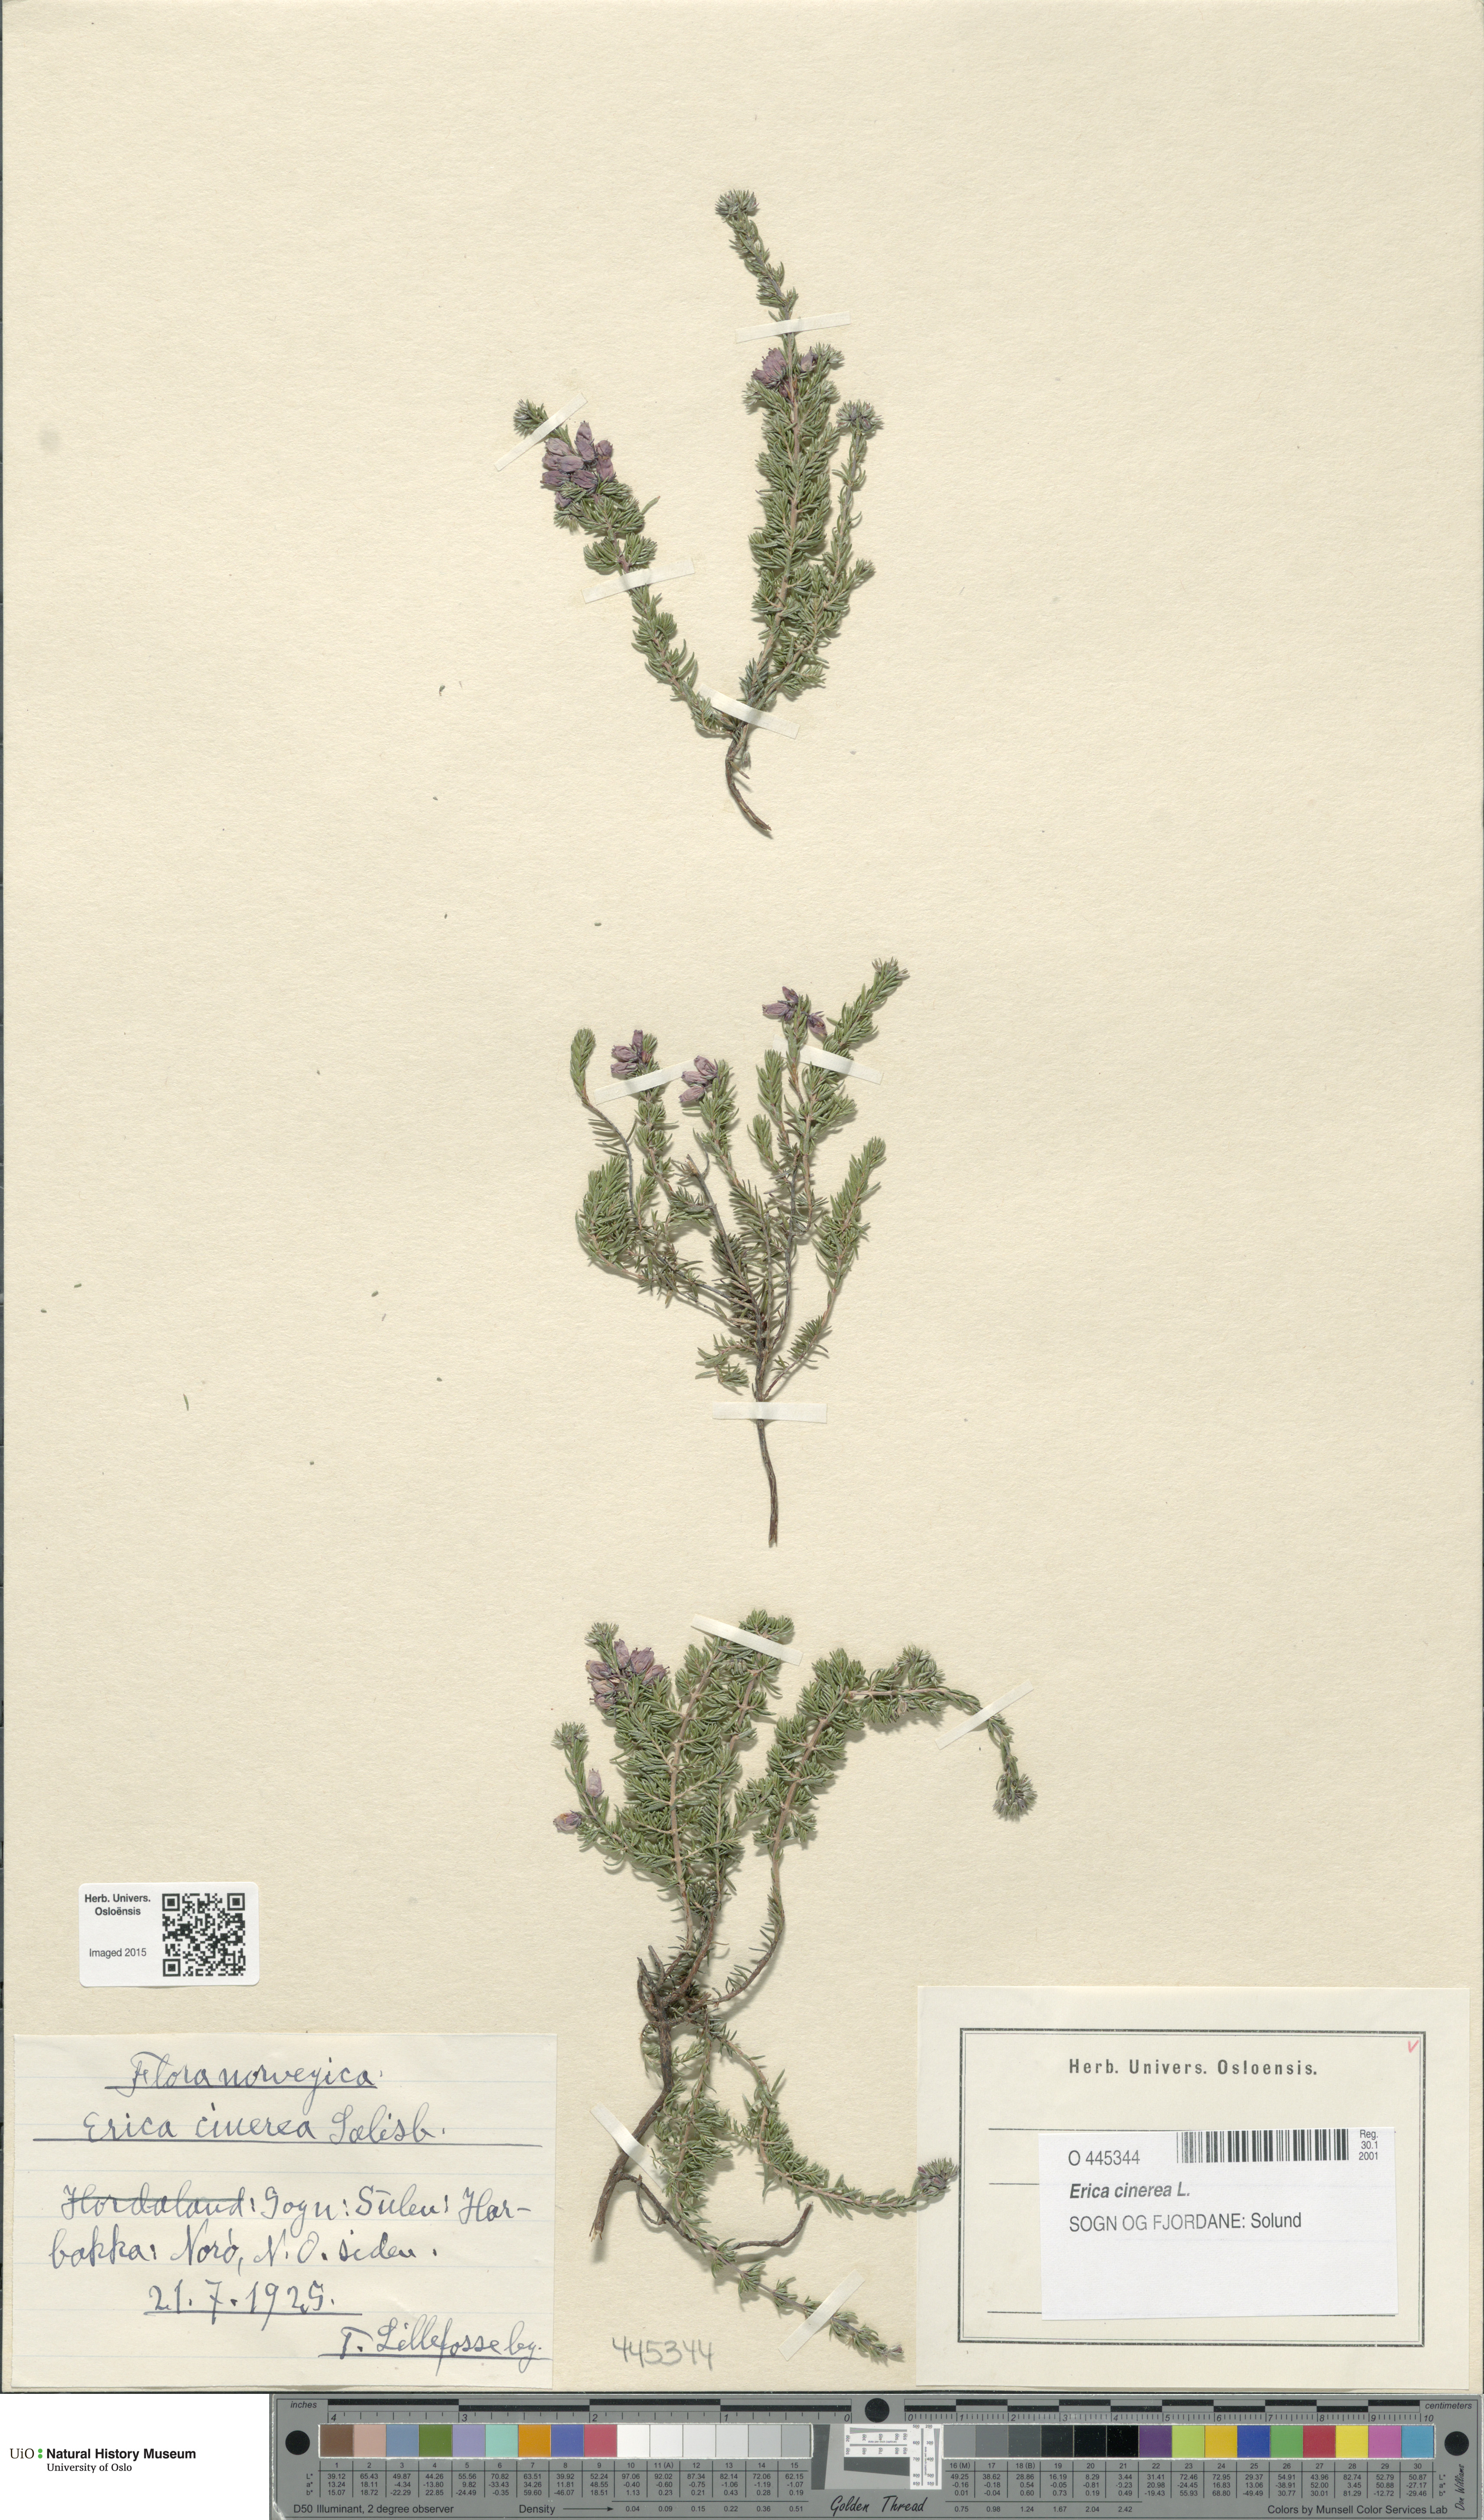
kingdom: Plantae
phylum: Tracheophyta
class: Magnoliopsida
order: Ericales
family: Ericaceae
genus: Erica
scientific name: Erica cinerea
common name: Bell heather
